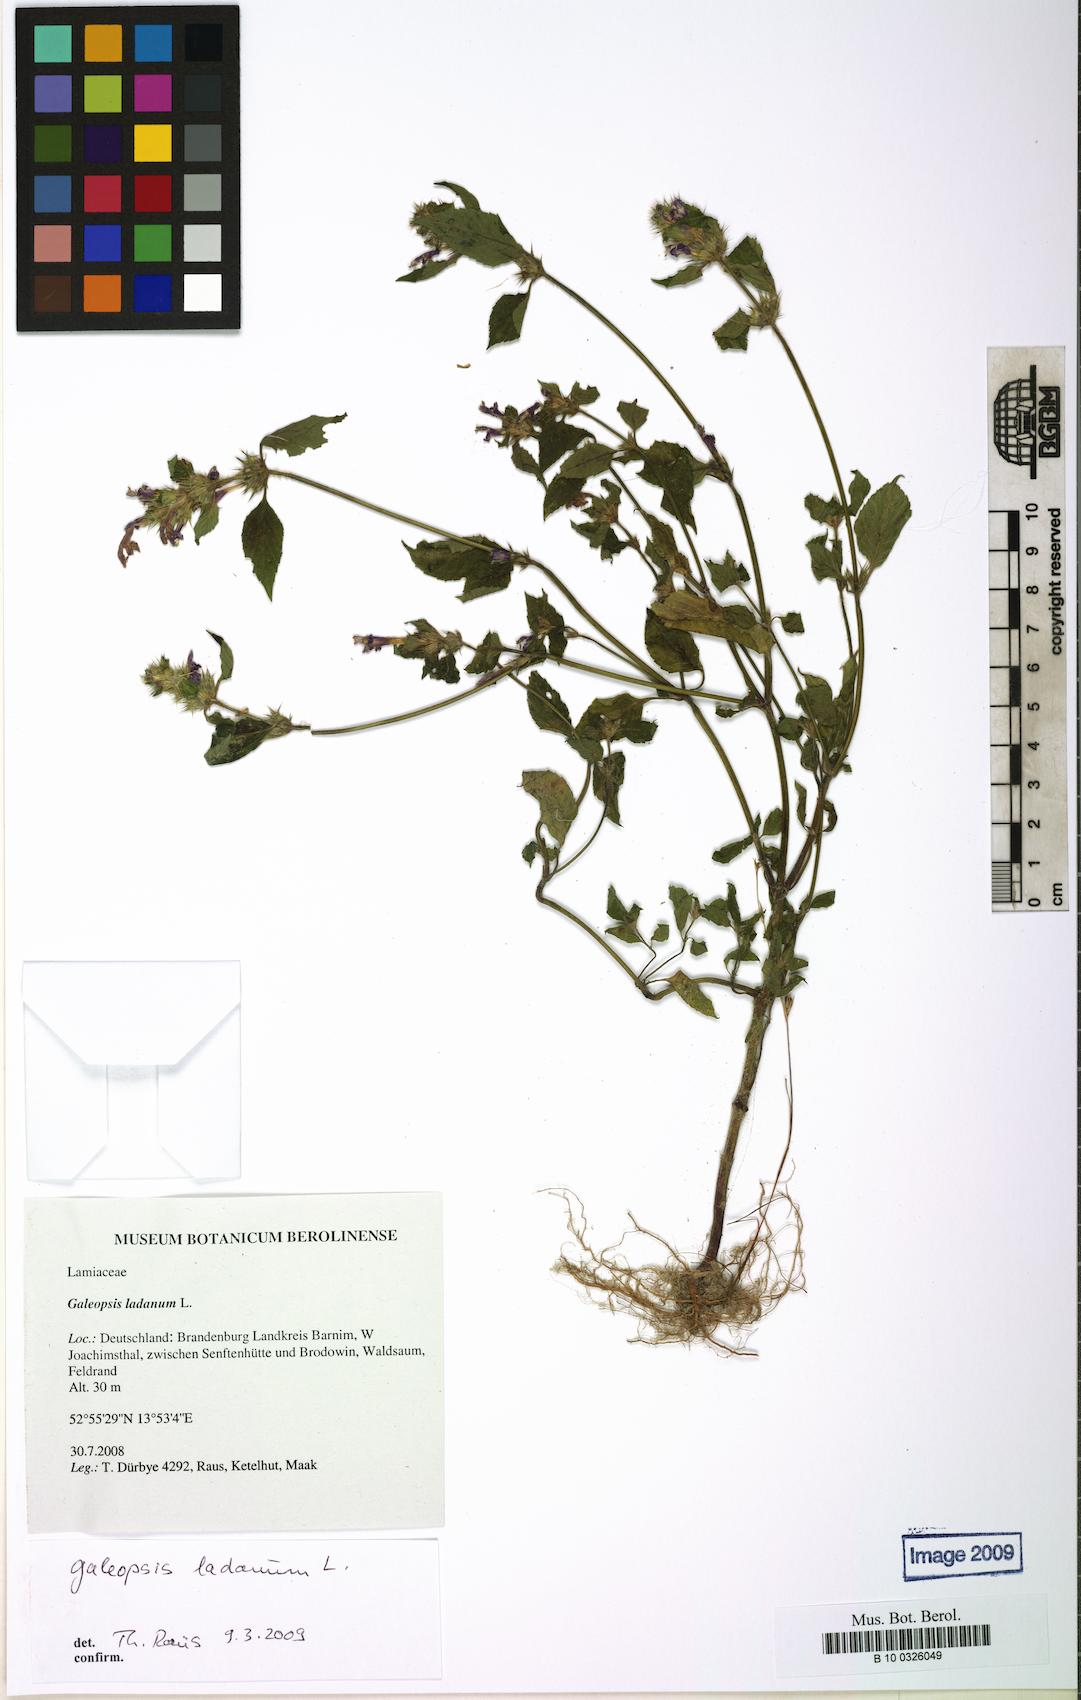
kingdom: Plantae
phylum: Tracheophyta
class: Magnoliopsida
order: Lamiales
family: Lamiaceae
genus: Galeopsis
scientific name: Galeopsis ladanum
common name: Broad-leaved hemp-nettle
